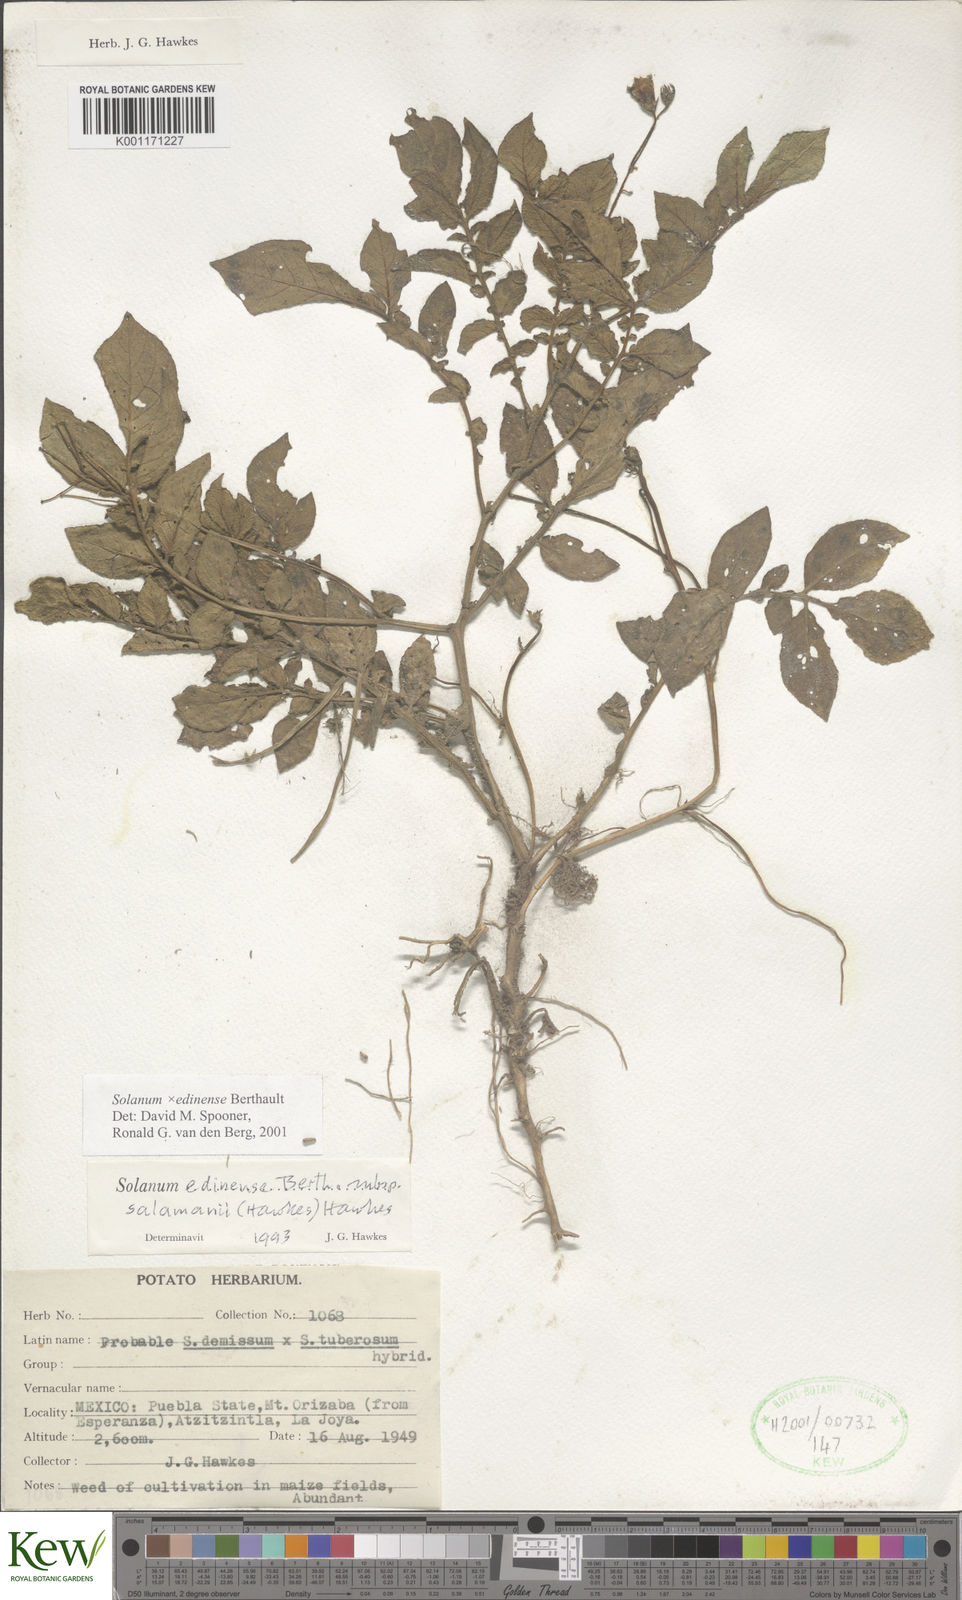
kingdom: Plantae
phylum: Tracheophyta
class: Magnoliopsida
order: Solanales
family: Solanaceae
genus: Solanum
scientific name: Solanum edinense
